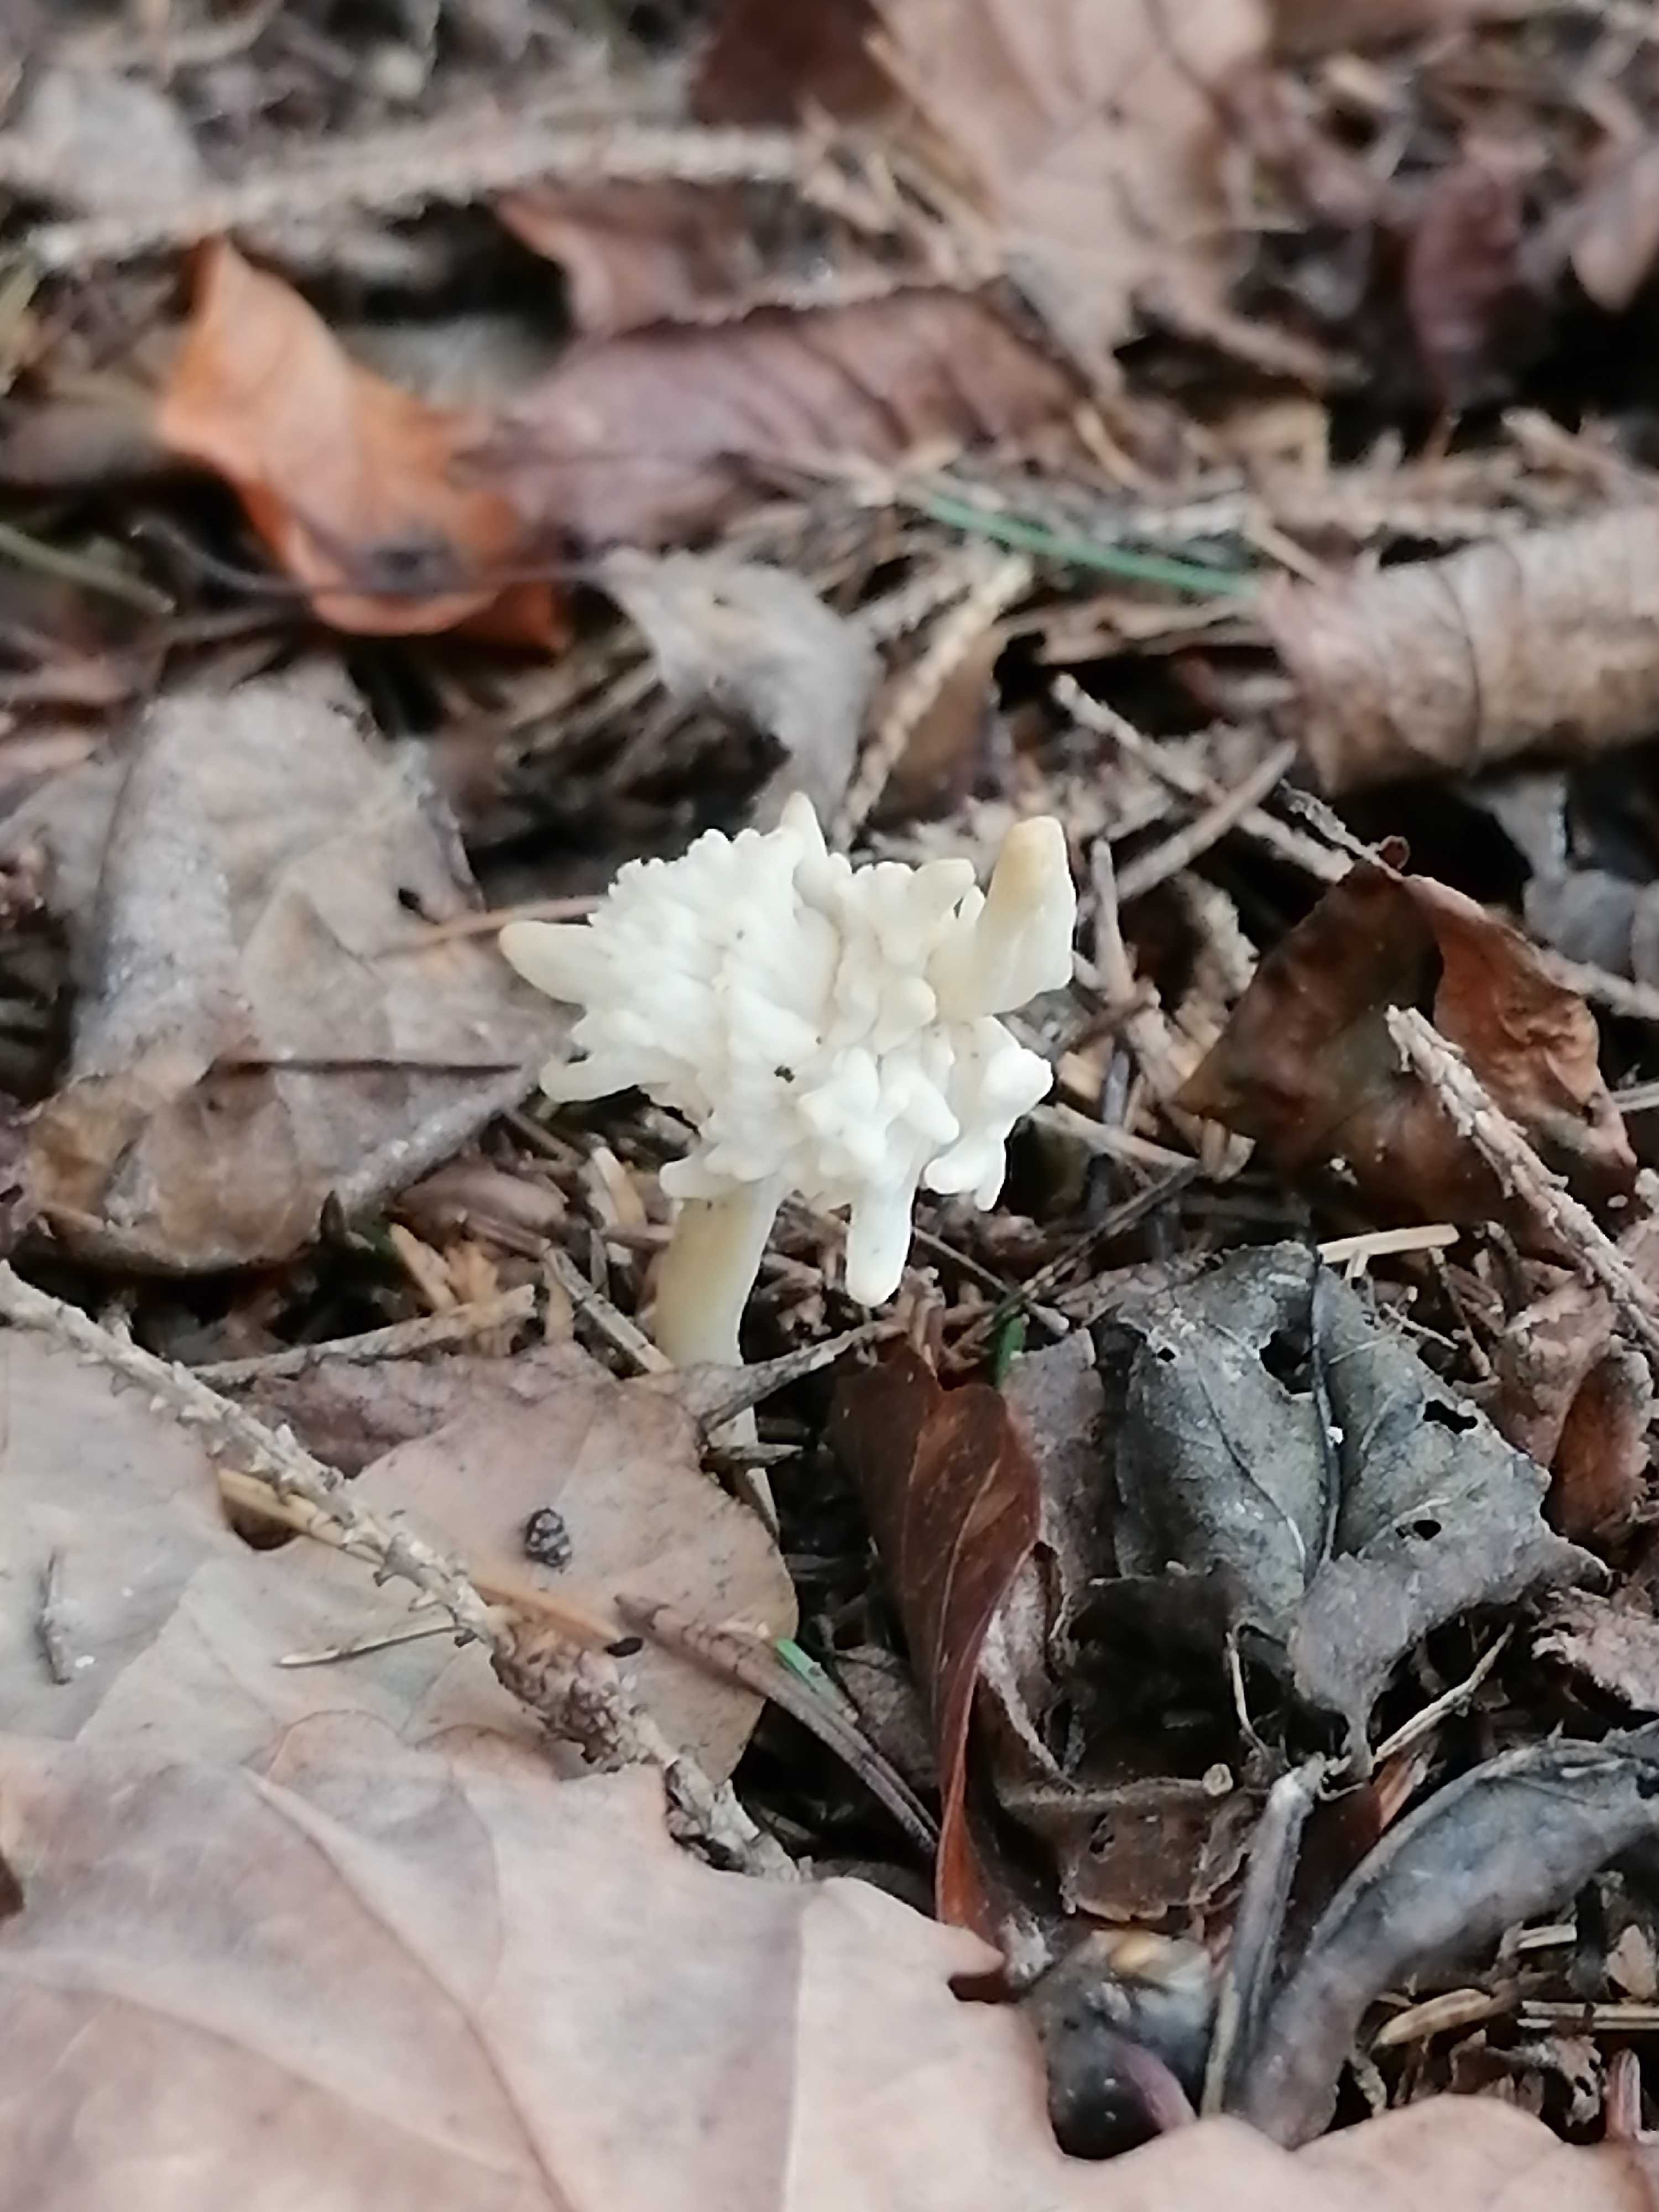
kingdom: Fungi
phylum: Basidiomycota
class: Agaricomycetes
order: Cantharellales
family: Hydnaceae
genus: Clavulina
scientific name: Clavulina
